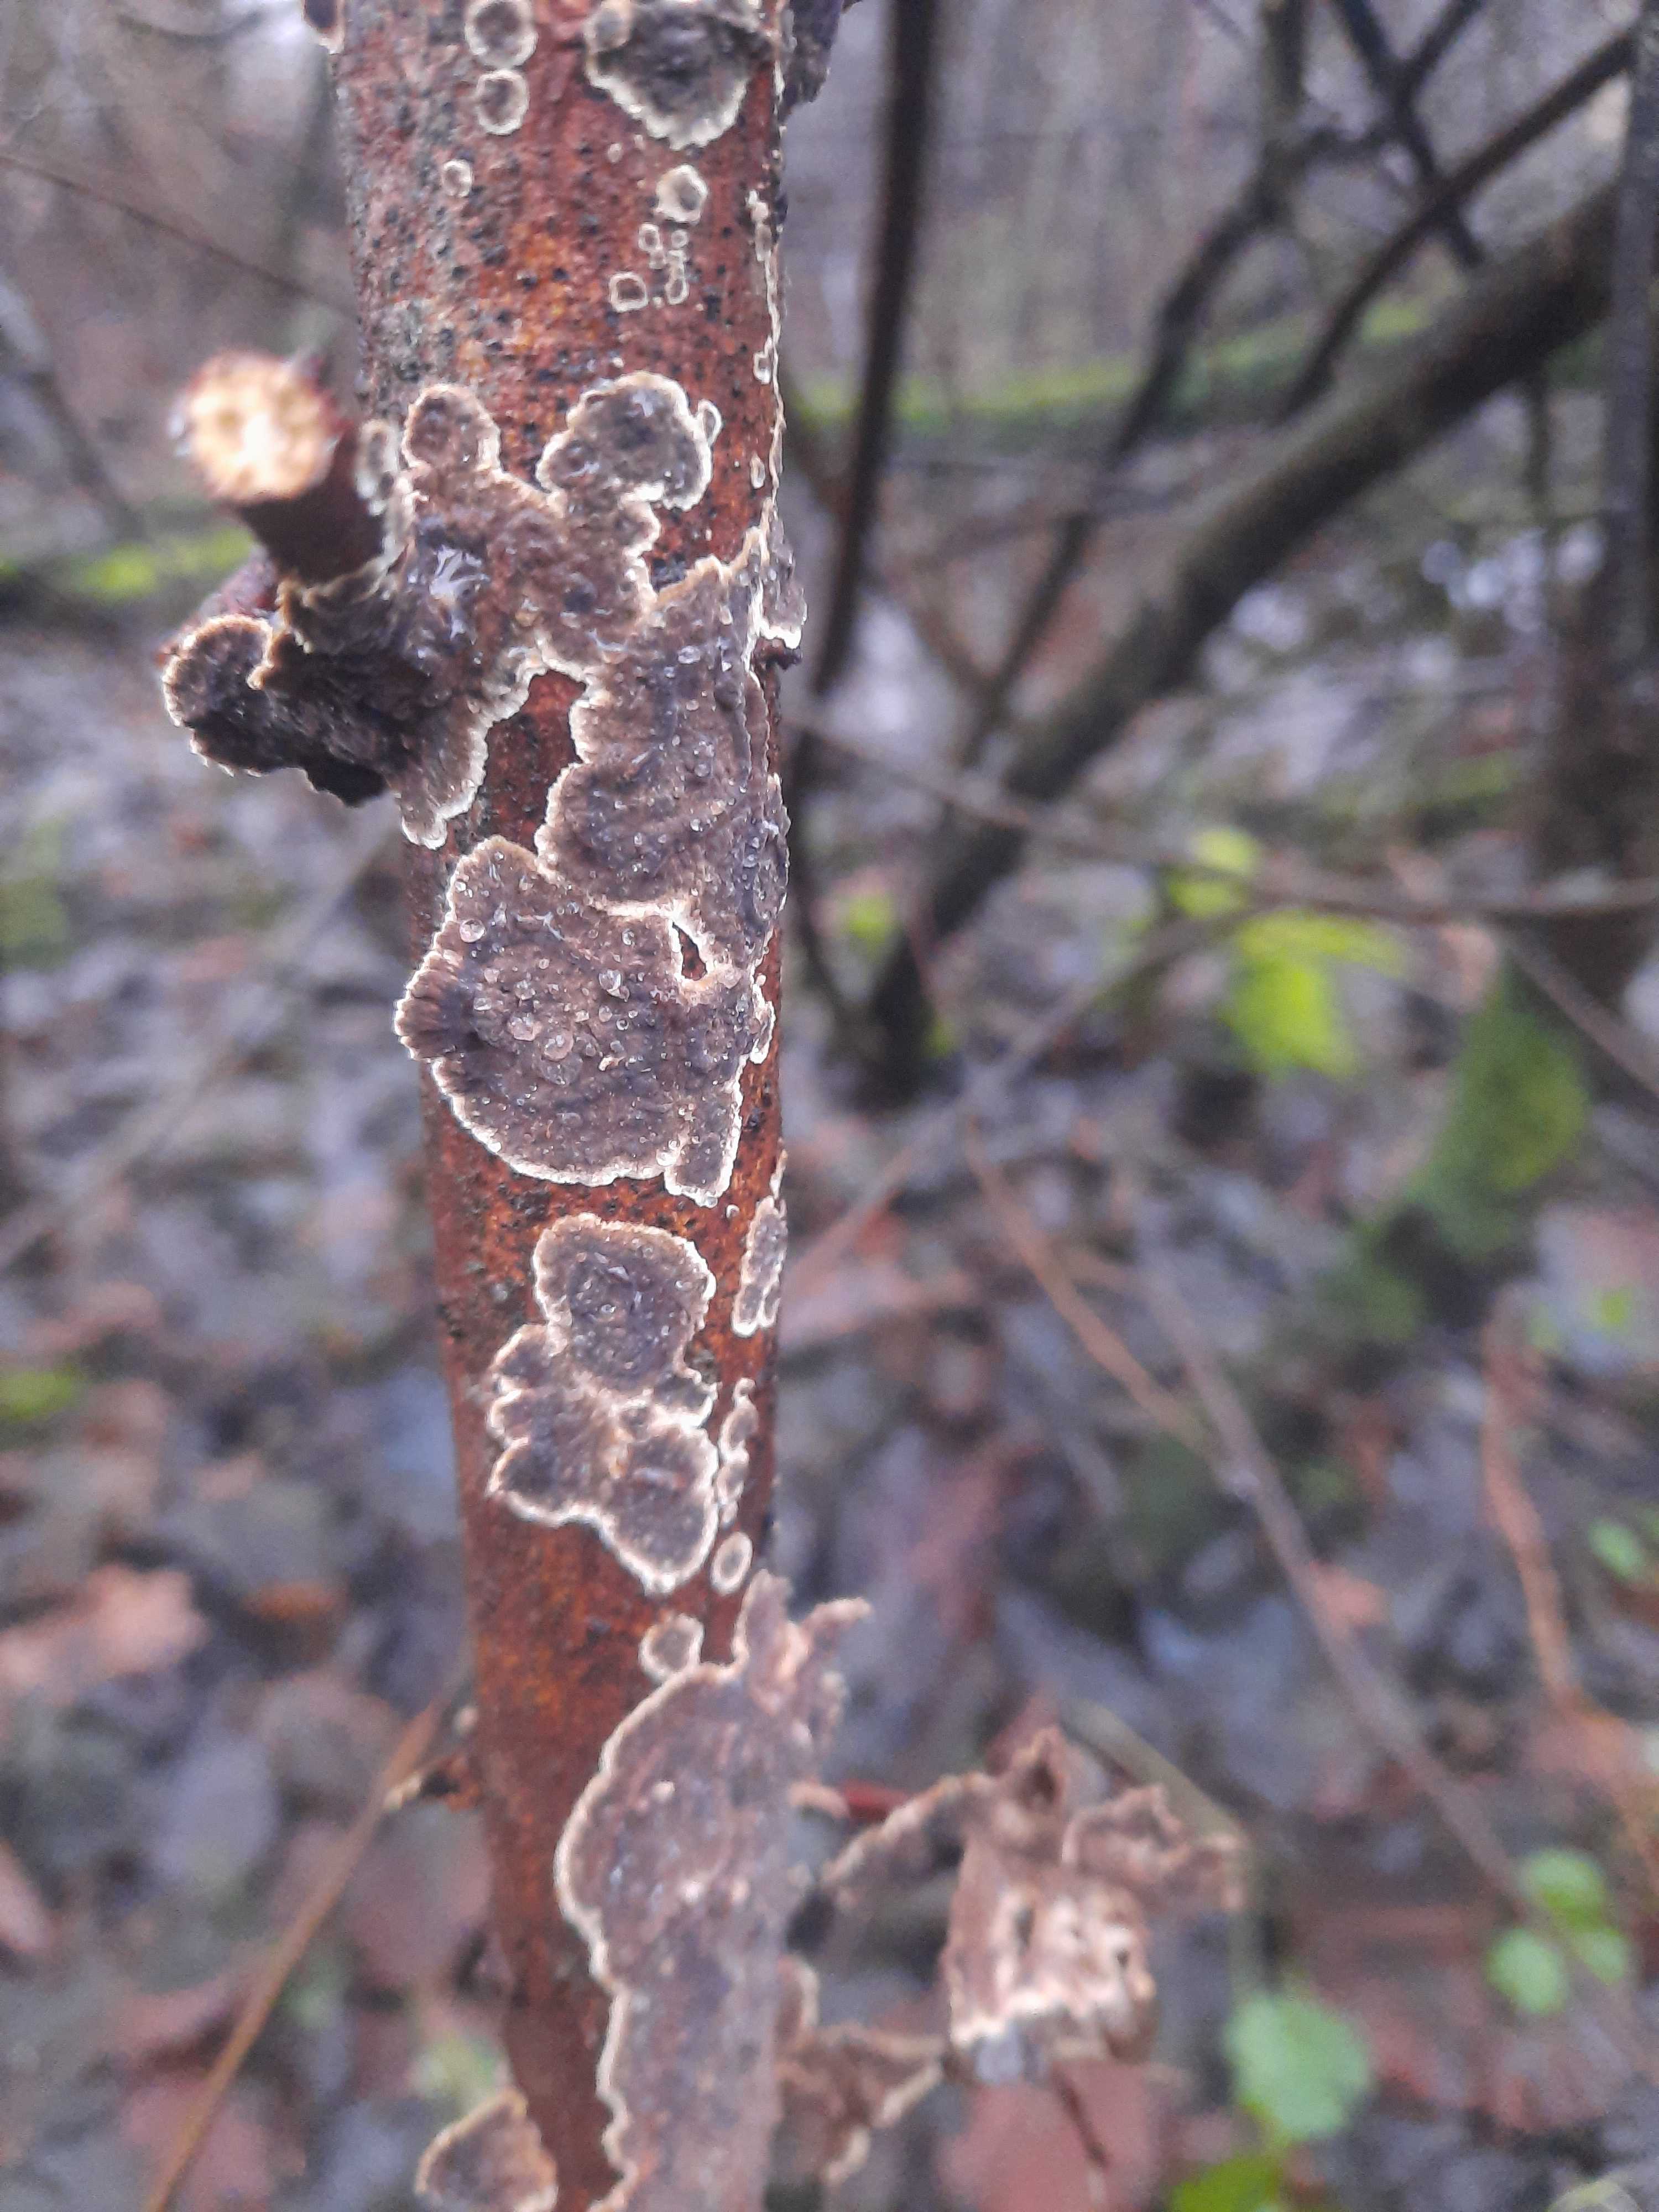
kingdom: Fungi
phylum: Basidiomycota
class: Agaricomycetes
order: Hymenochaetales
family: Hymenochaetaceae
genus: Hydnoporia
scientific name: Hydnoporia tabacina
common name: tobaksbrun ruslædersvamp
